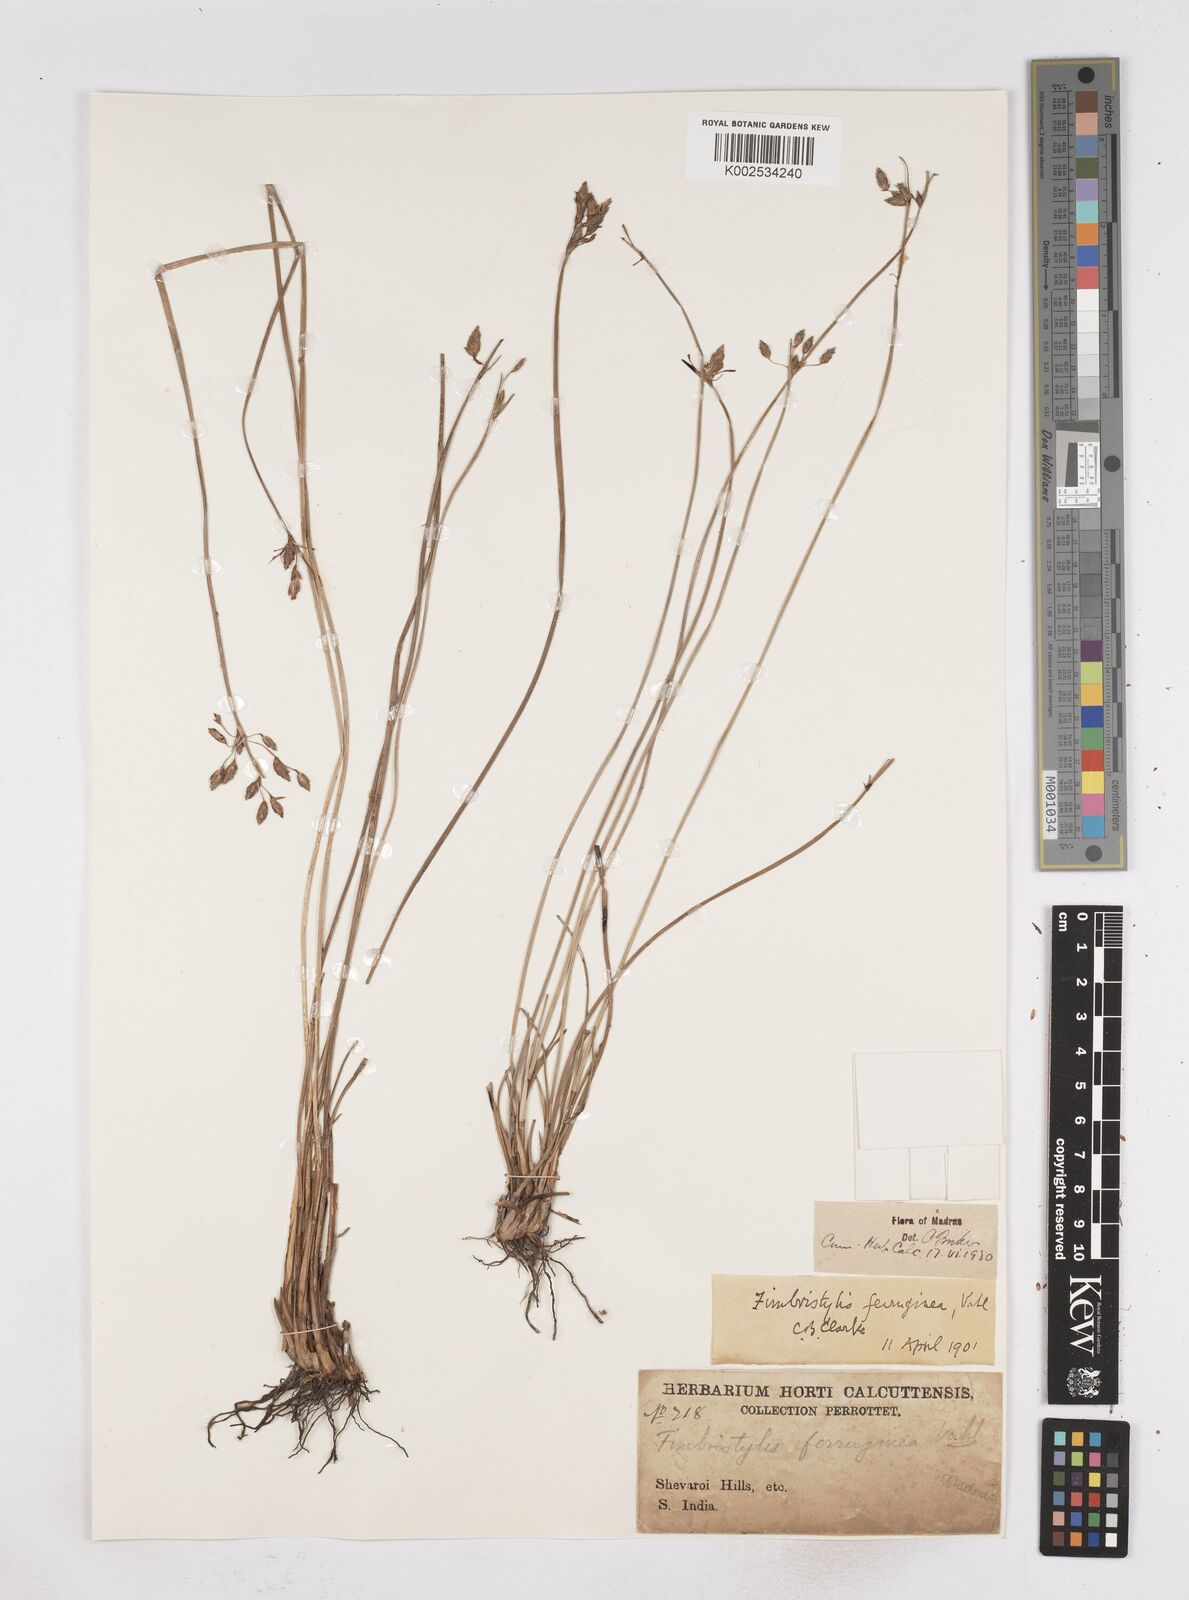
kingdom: Plantae
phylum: Tracheophyta
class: Liliopsida
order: Poales
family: Cyperaceae
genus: Fimbristylis
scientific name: Fimbristylis ferruginea
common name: West indian fimbry
